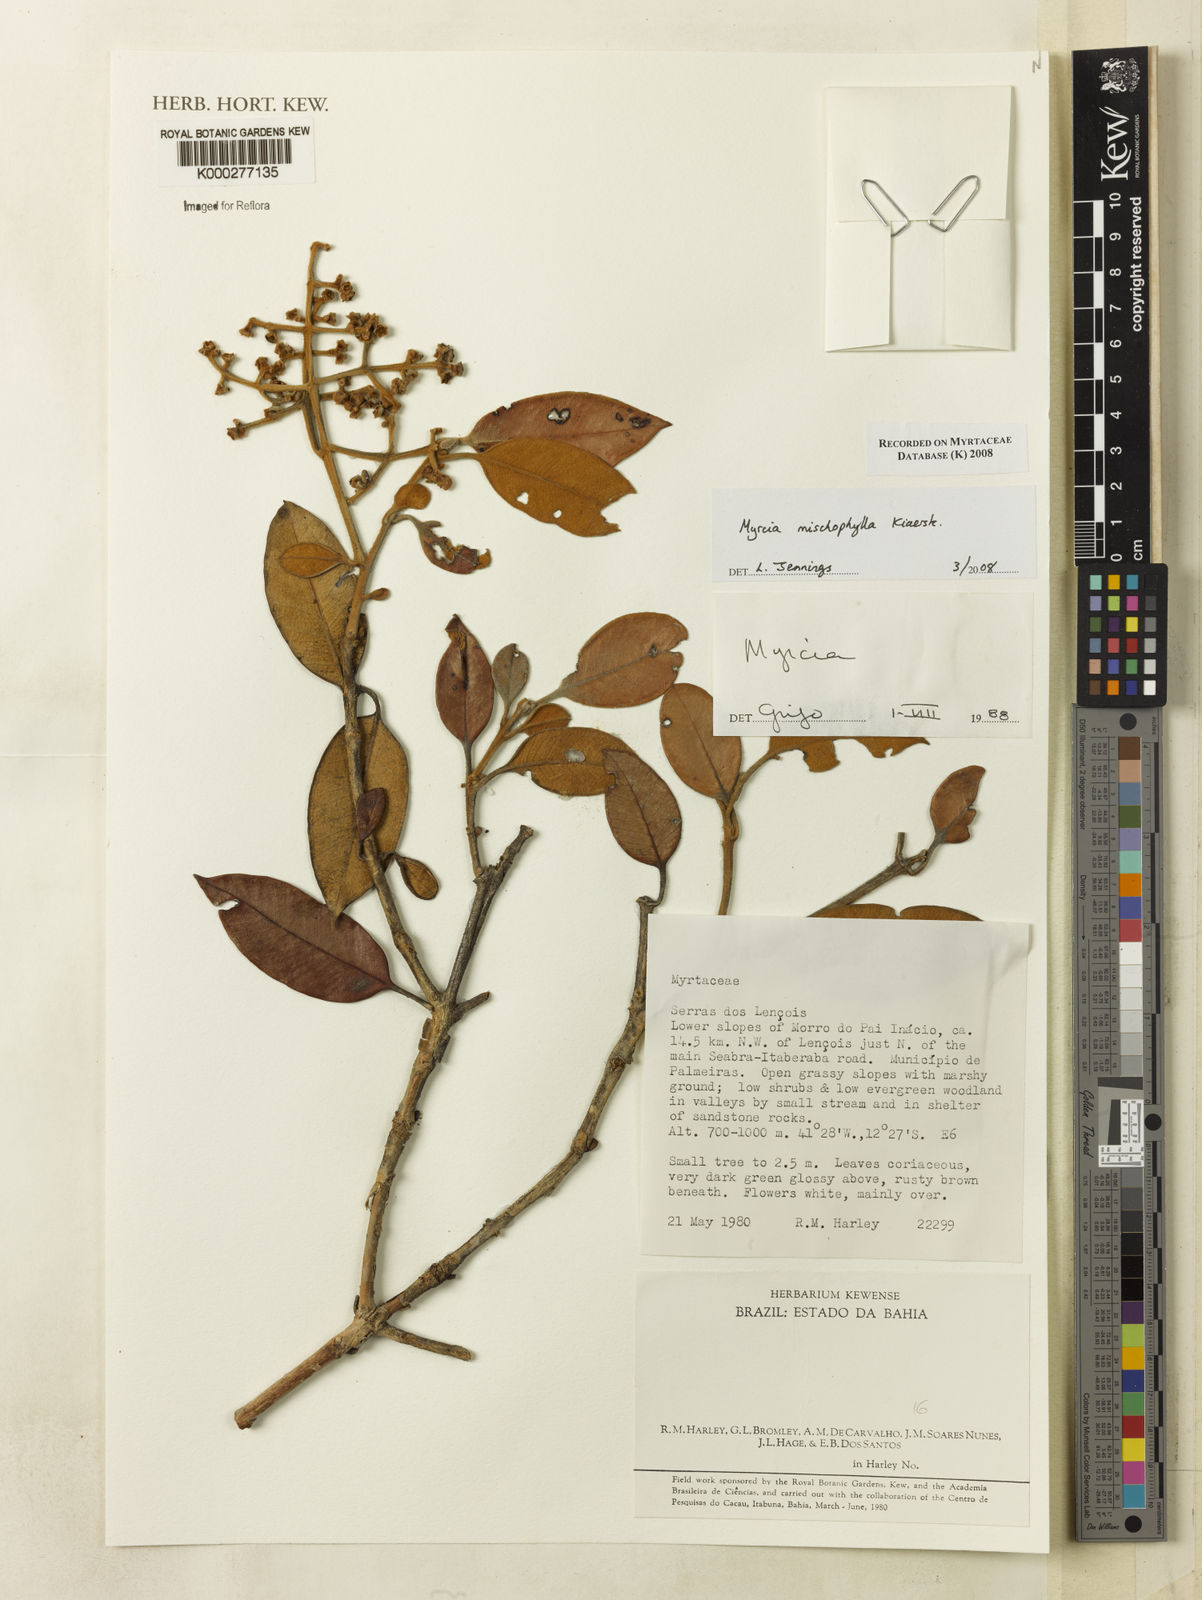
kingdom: Plantae
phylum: Tracheophyta
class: Magnoliopsida
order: Myrtales
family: Myrtaceae
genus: Myrcia
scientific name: Myrcia mischophylla
